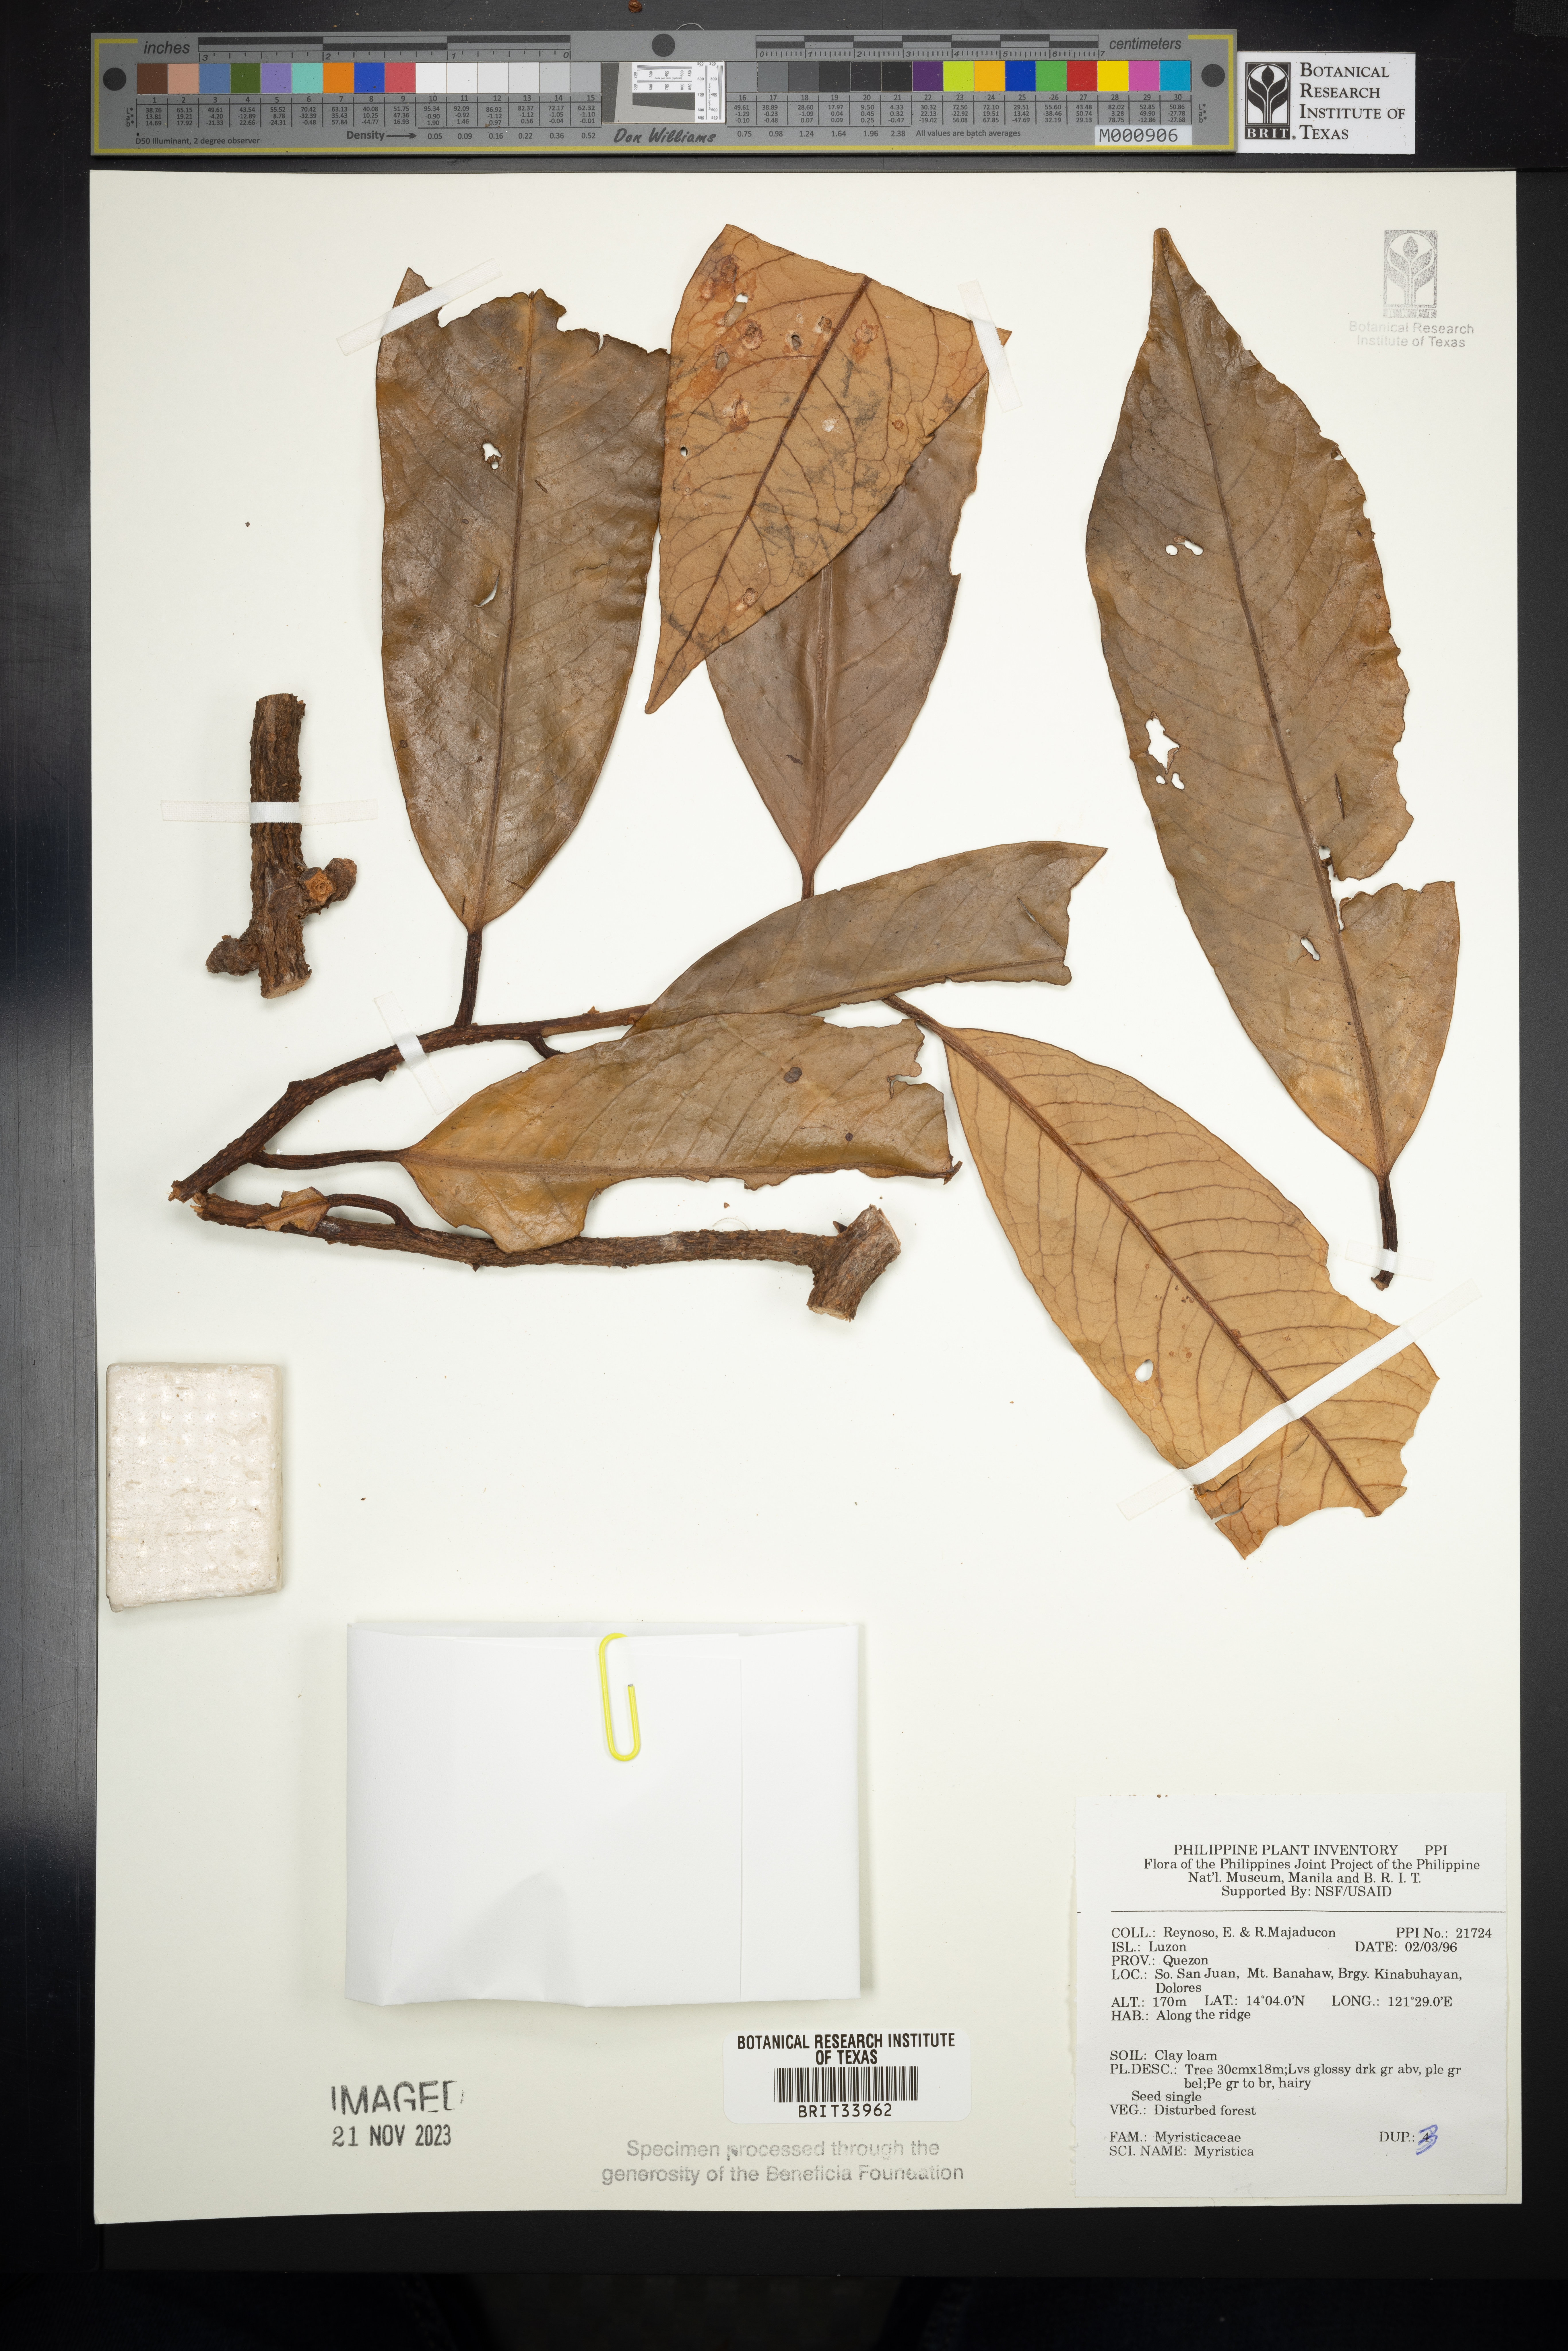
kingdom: Plantae
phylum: Tracheophyta
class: Magnoliopsida
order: Magnoliales
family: Myristicaceae
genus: Myristica
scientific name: Myristica
